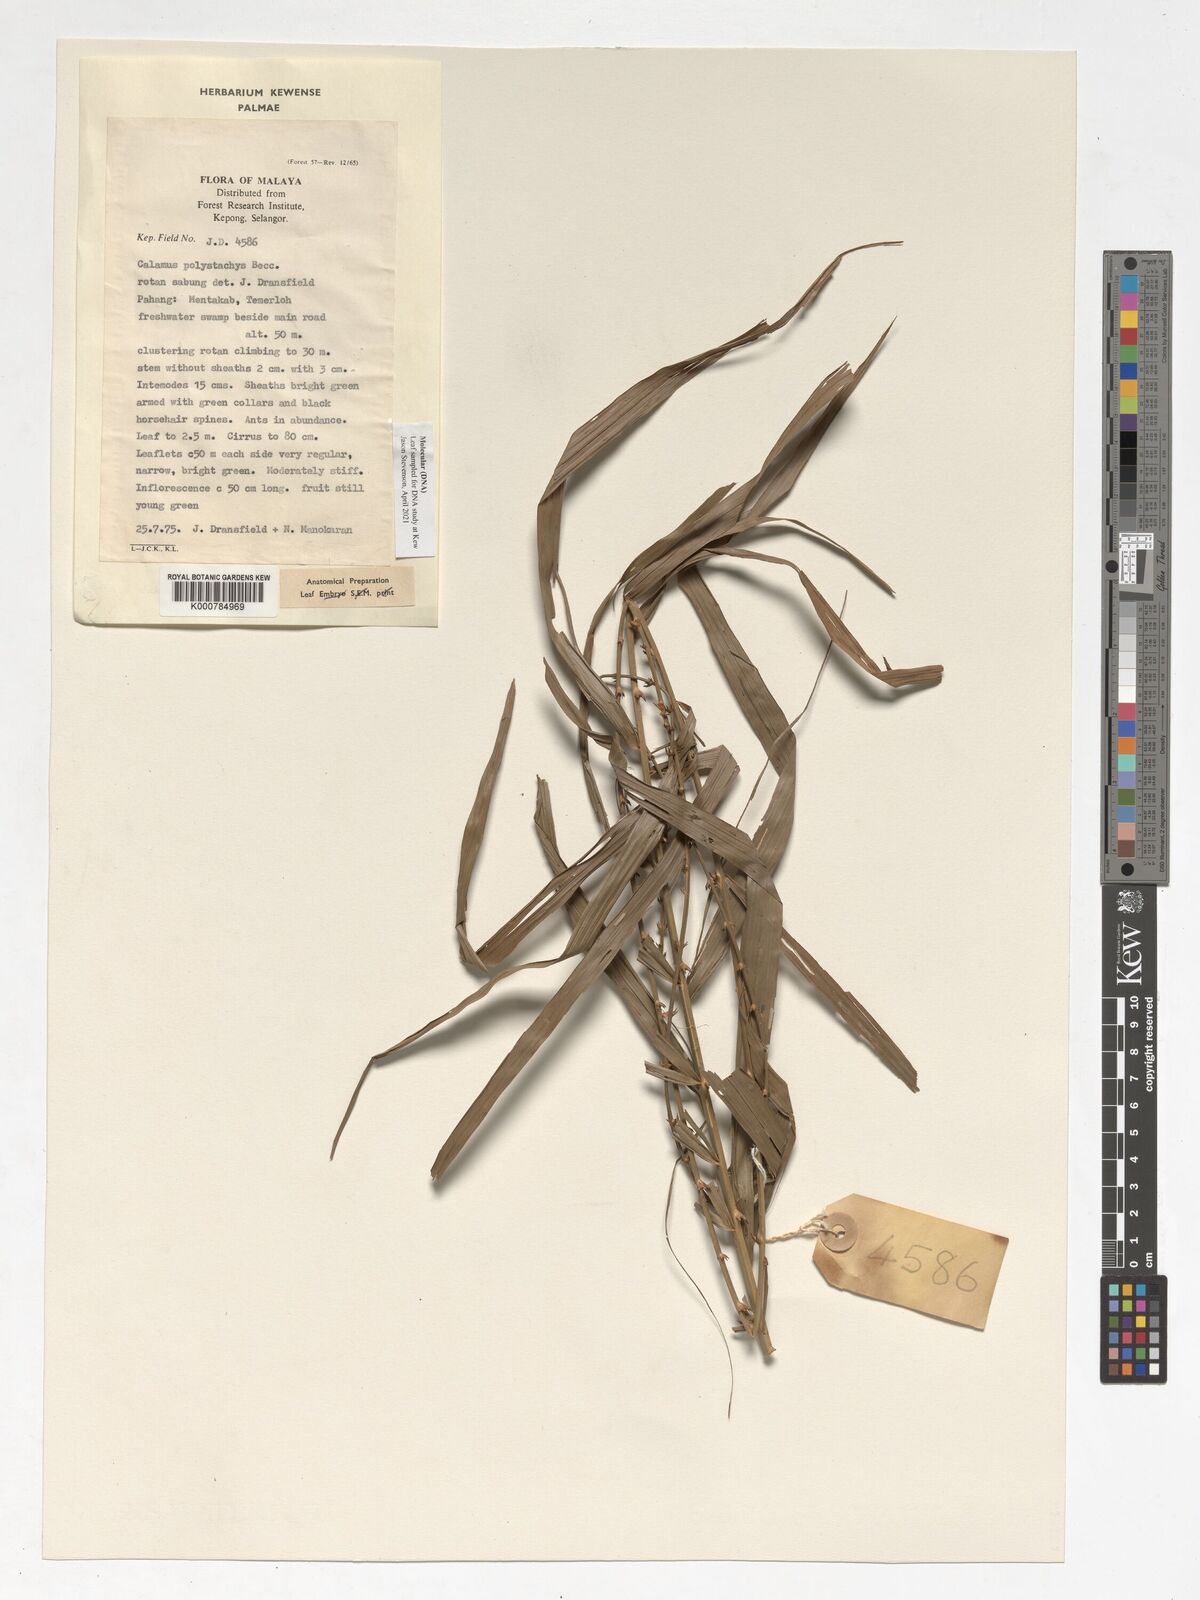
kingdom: Plantae
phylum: Tracheophyta
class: Liliopsida
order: Arecales
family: Arecaceae
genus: Calamus
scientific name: Calamus mirabilis
